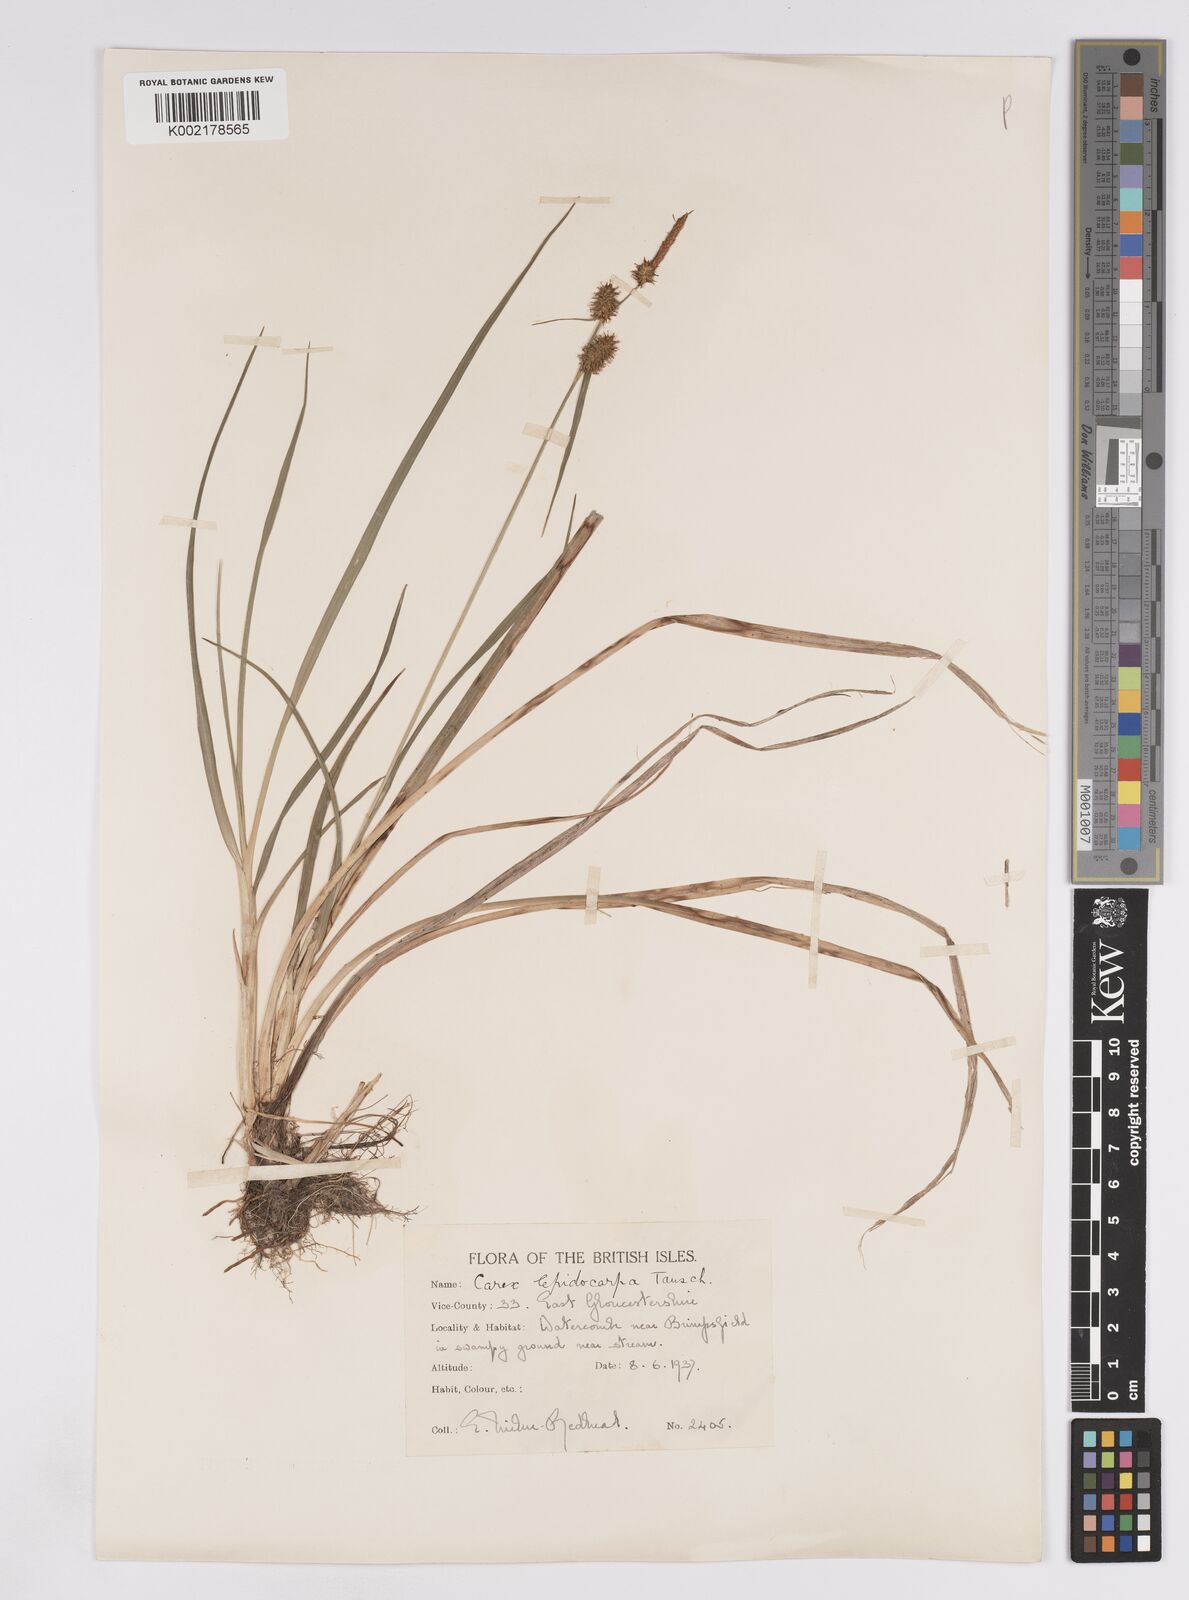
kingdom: Plantae
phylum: Tracheophyta
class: Liliopsida
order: Poales
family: Cyperaceae
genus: Carex
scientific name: Carex lepidocarpa
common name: Long-stalked yellow-sedge
